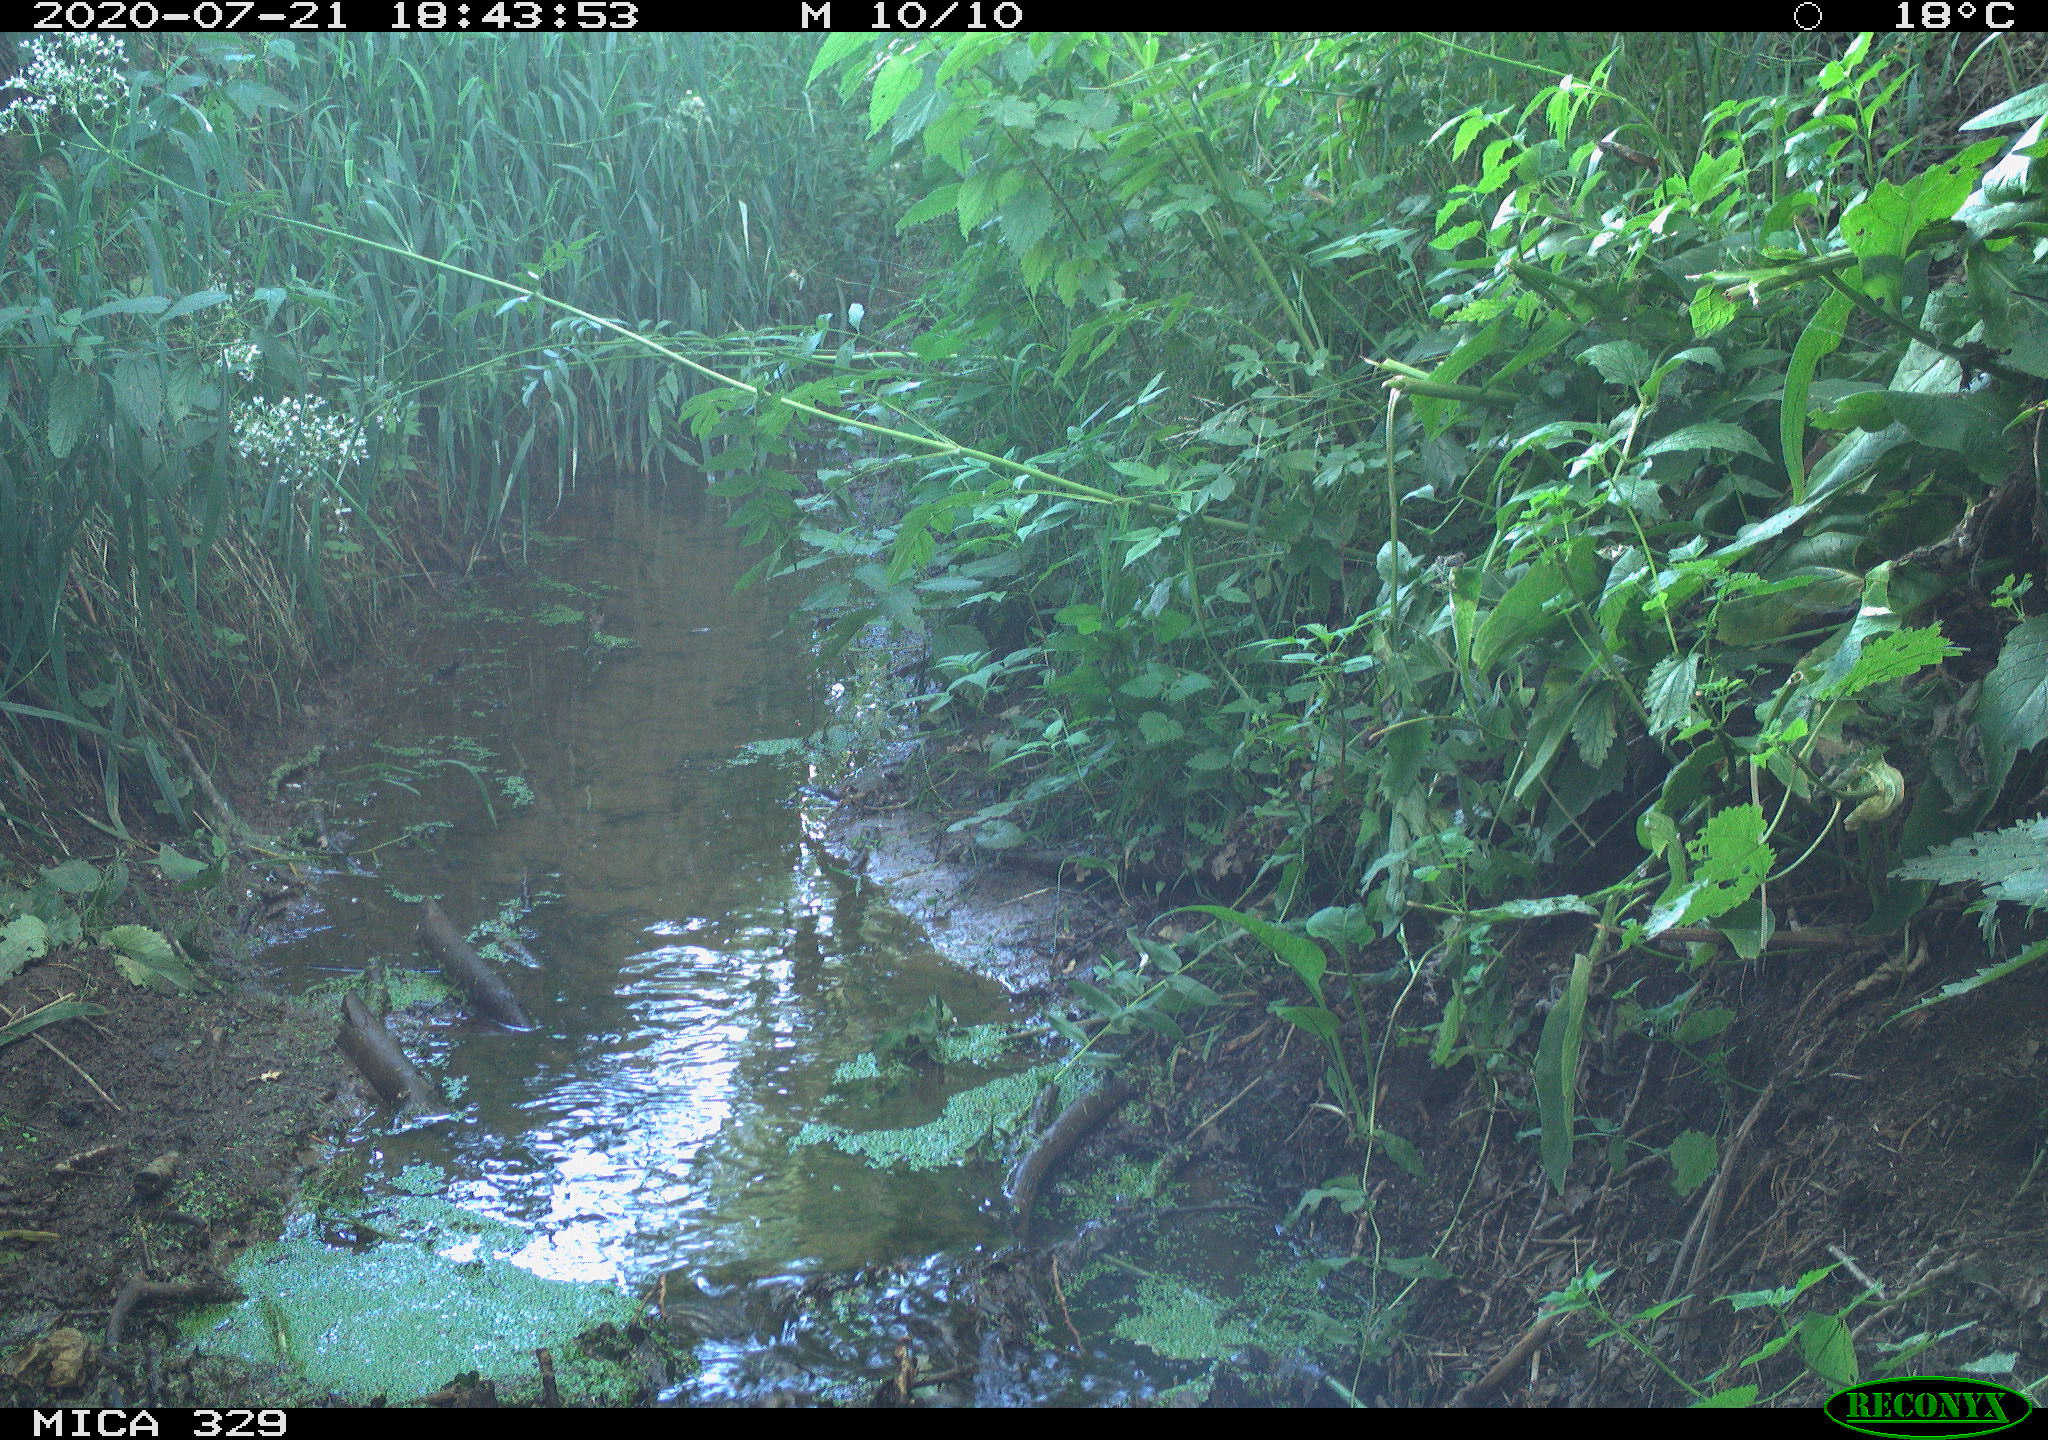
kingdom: Animalia
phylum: Chordata
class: Aves
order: Galliformes
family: Phasianidae
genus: Phasianus
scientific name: Phasianus colchicus
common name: Common pheasant
